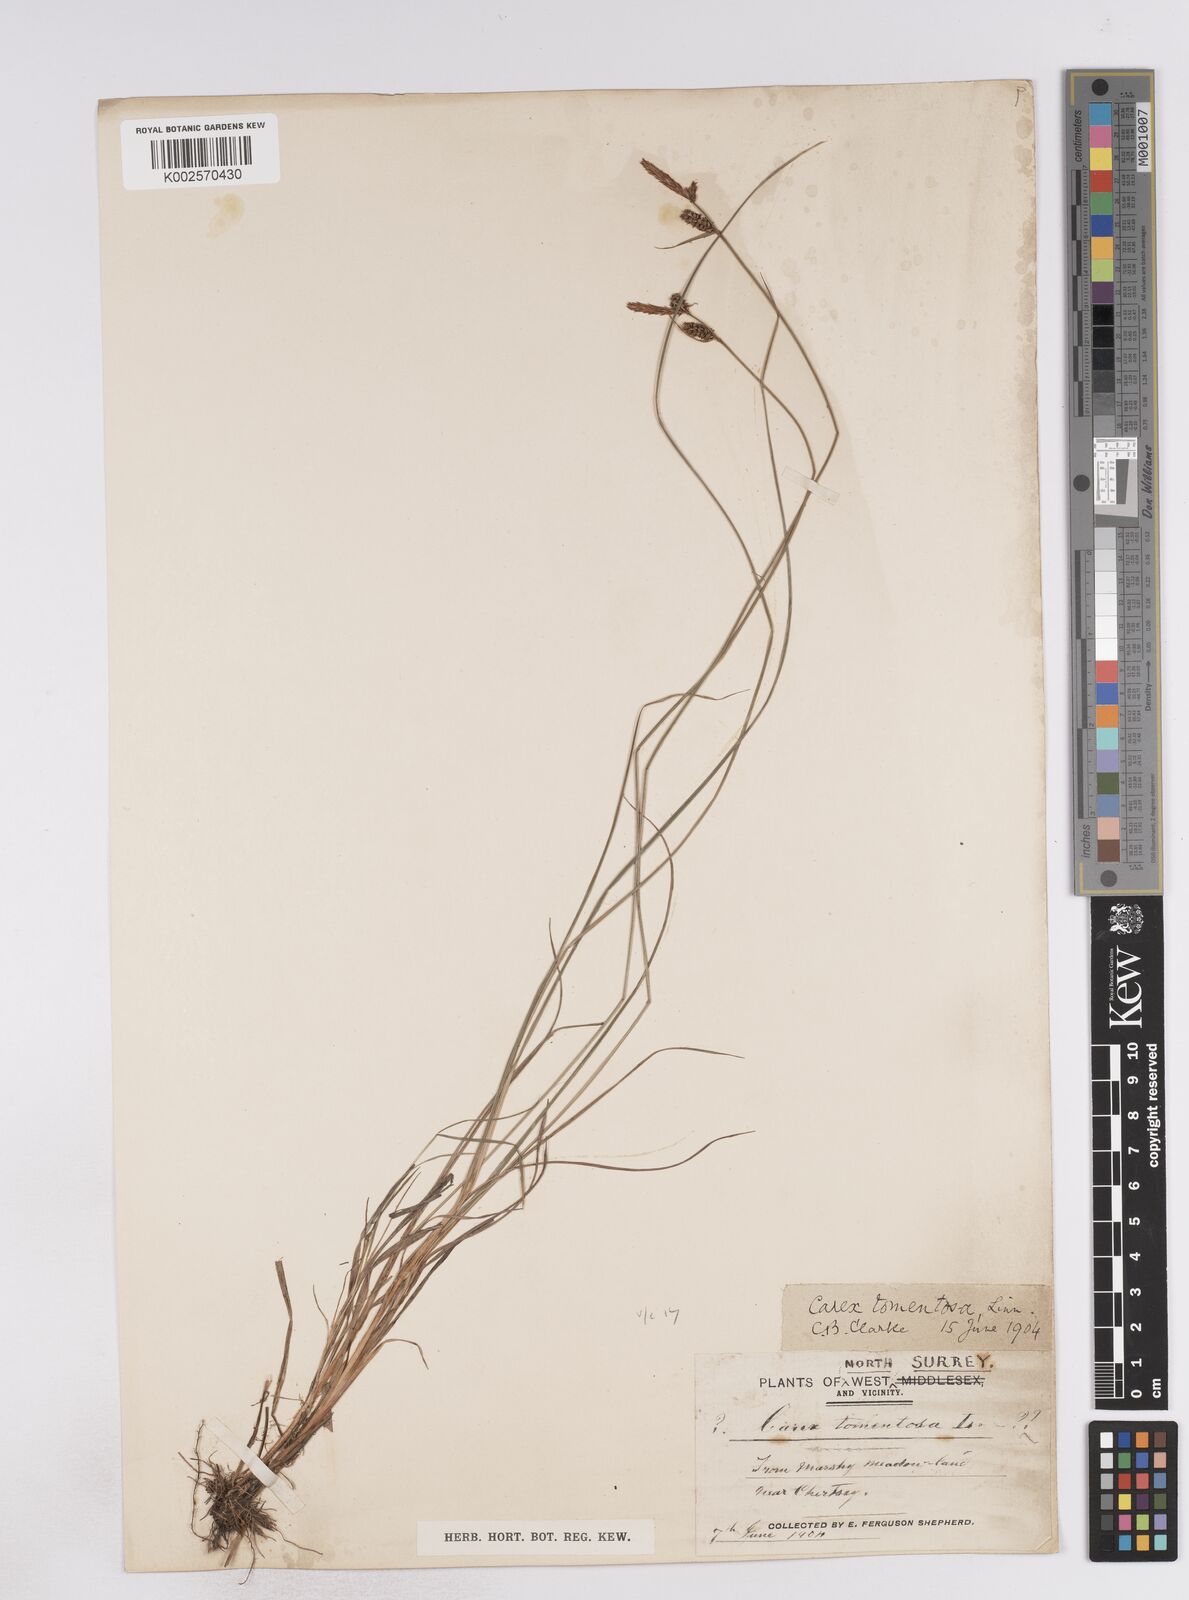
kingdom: Plantae
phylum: Tracheophyta
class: Liliopsida
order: Poales
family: Cyperaceae
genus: Carex
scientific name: Carex montana
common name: Soft-leaved sedge
